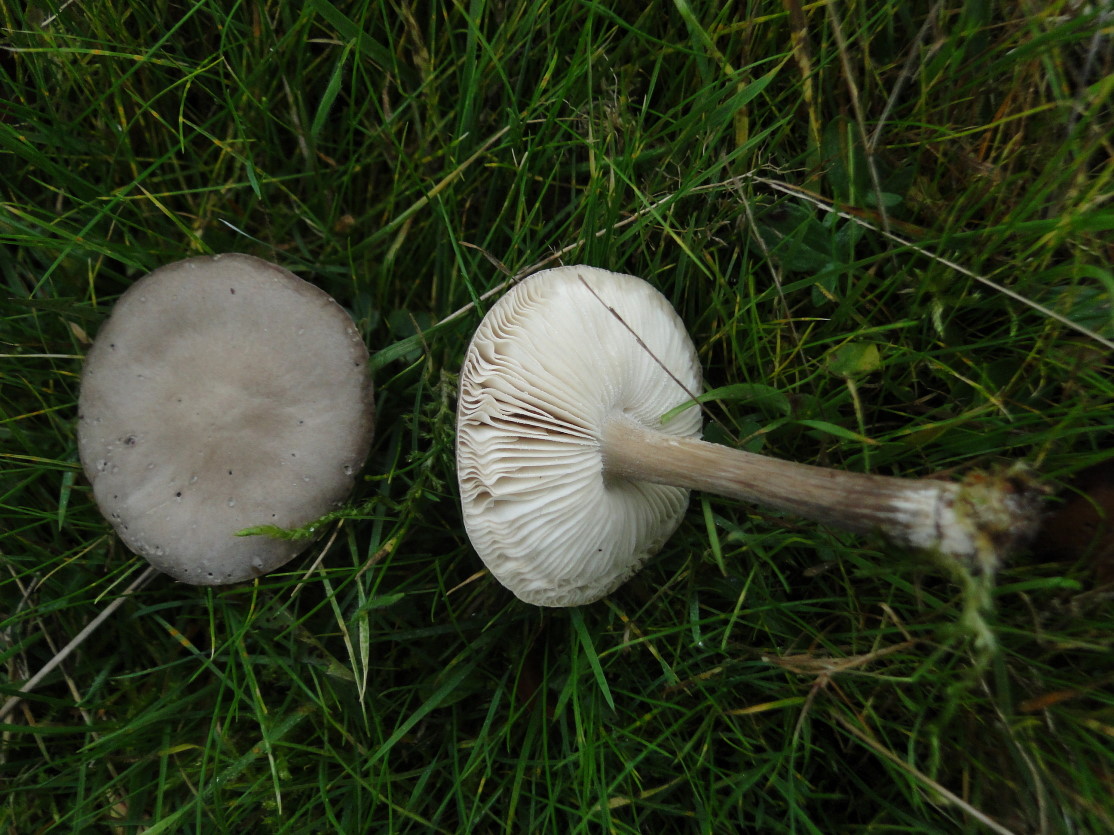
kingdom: Fungi
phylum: Basidiomycota
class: Agaricomycetes
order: Agaricales
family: Tricholomataceae
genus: Melanoleuca
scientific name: Melanoleuca polioleuca
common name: hvidbladet munkehat
